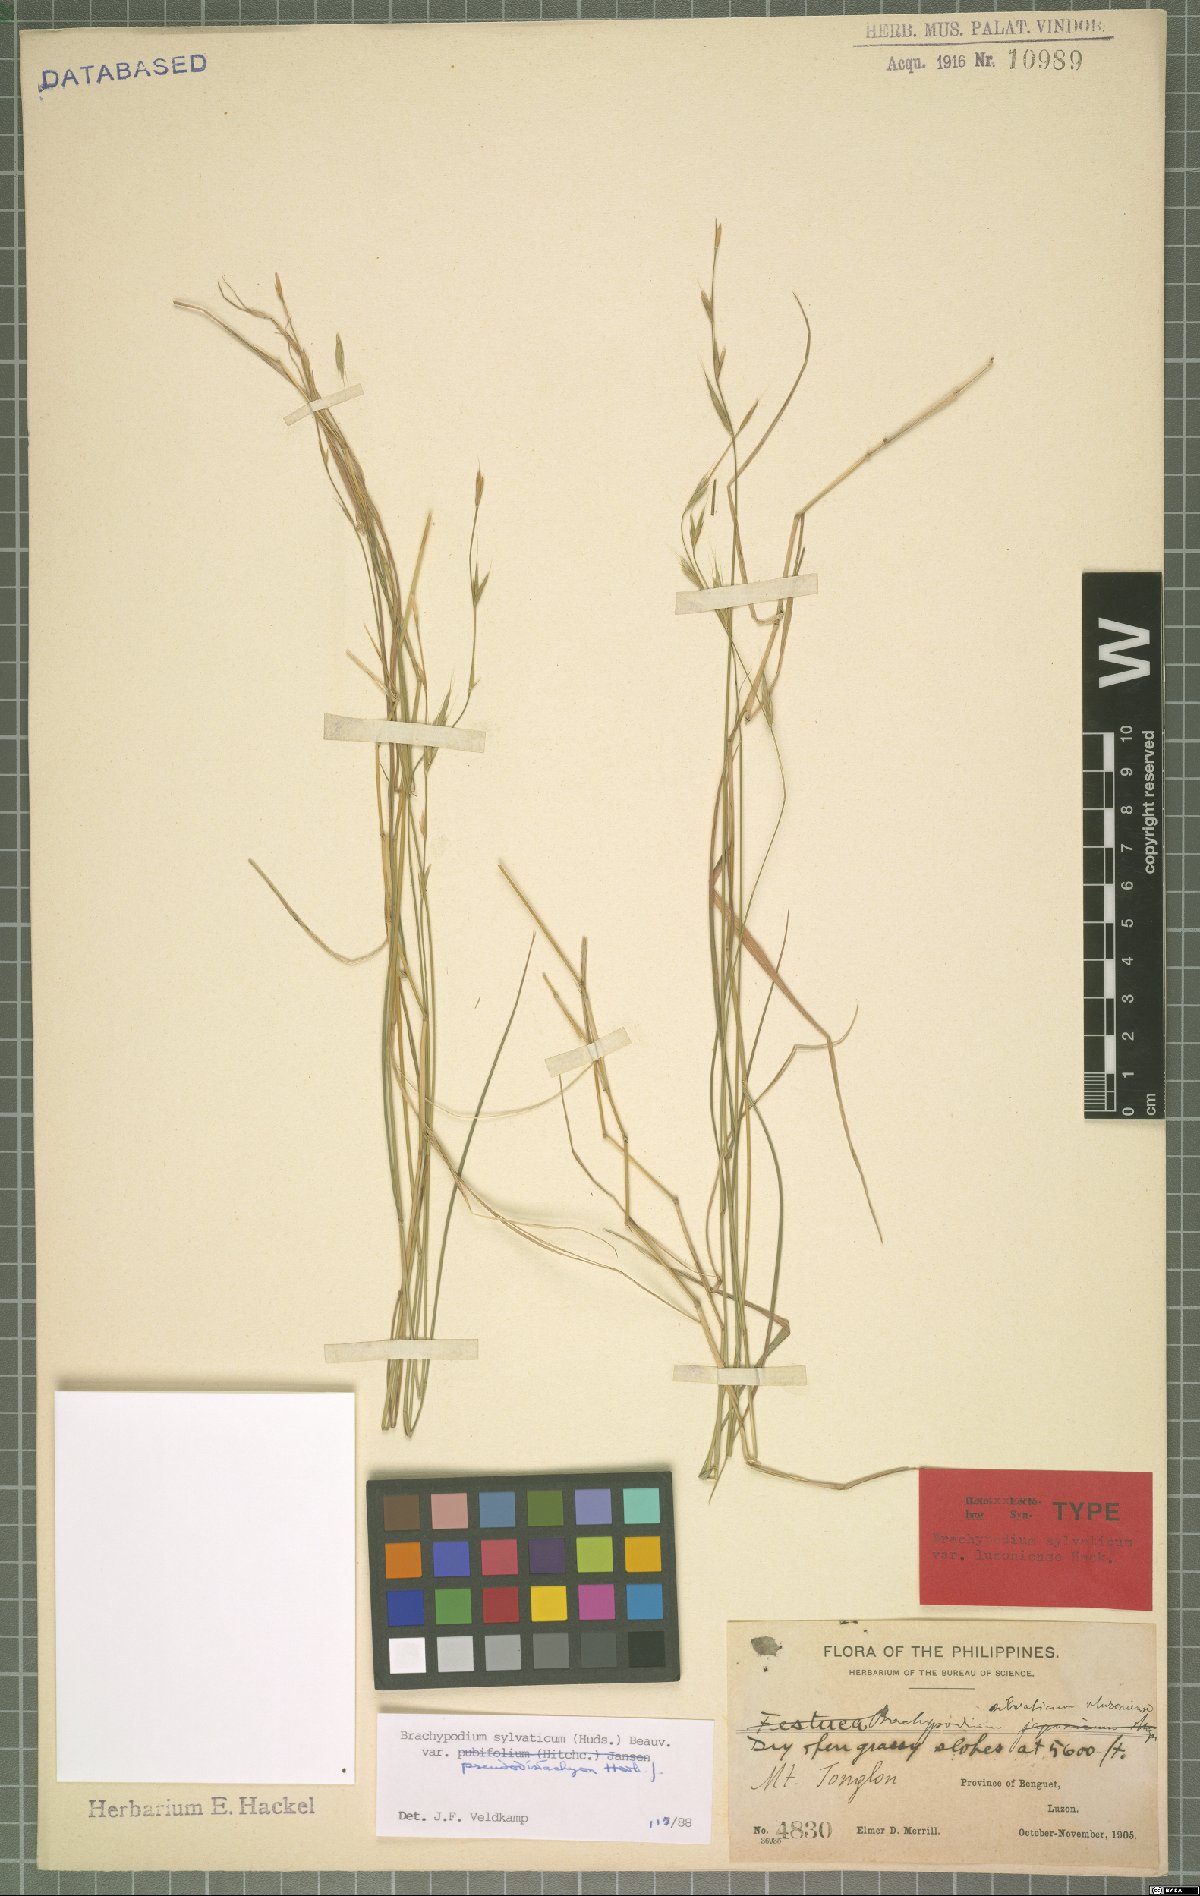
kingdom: Plantae
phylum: Tracheophyta
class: Liliopsida
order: Poales
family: Poaceae
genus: Brachypodium
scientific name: Brachypodium sylvaticum
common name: False-brome
